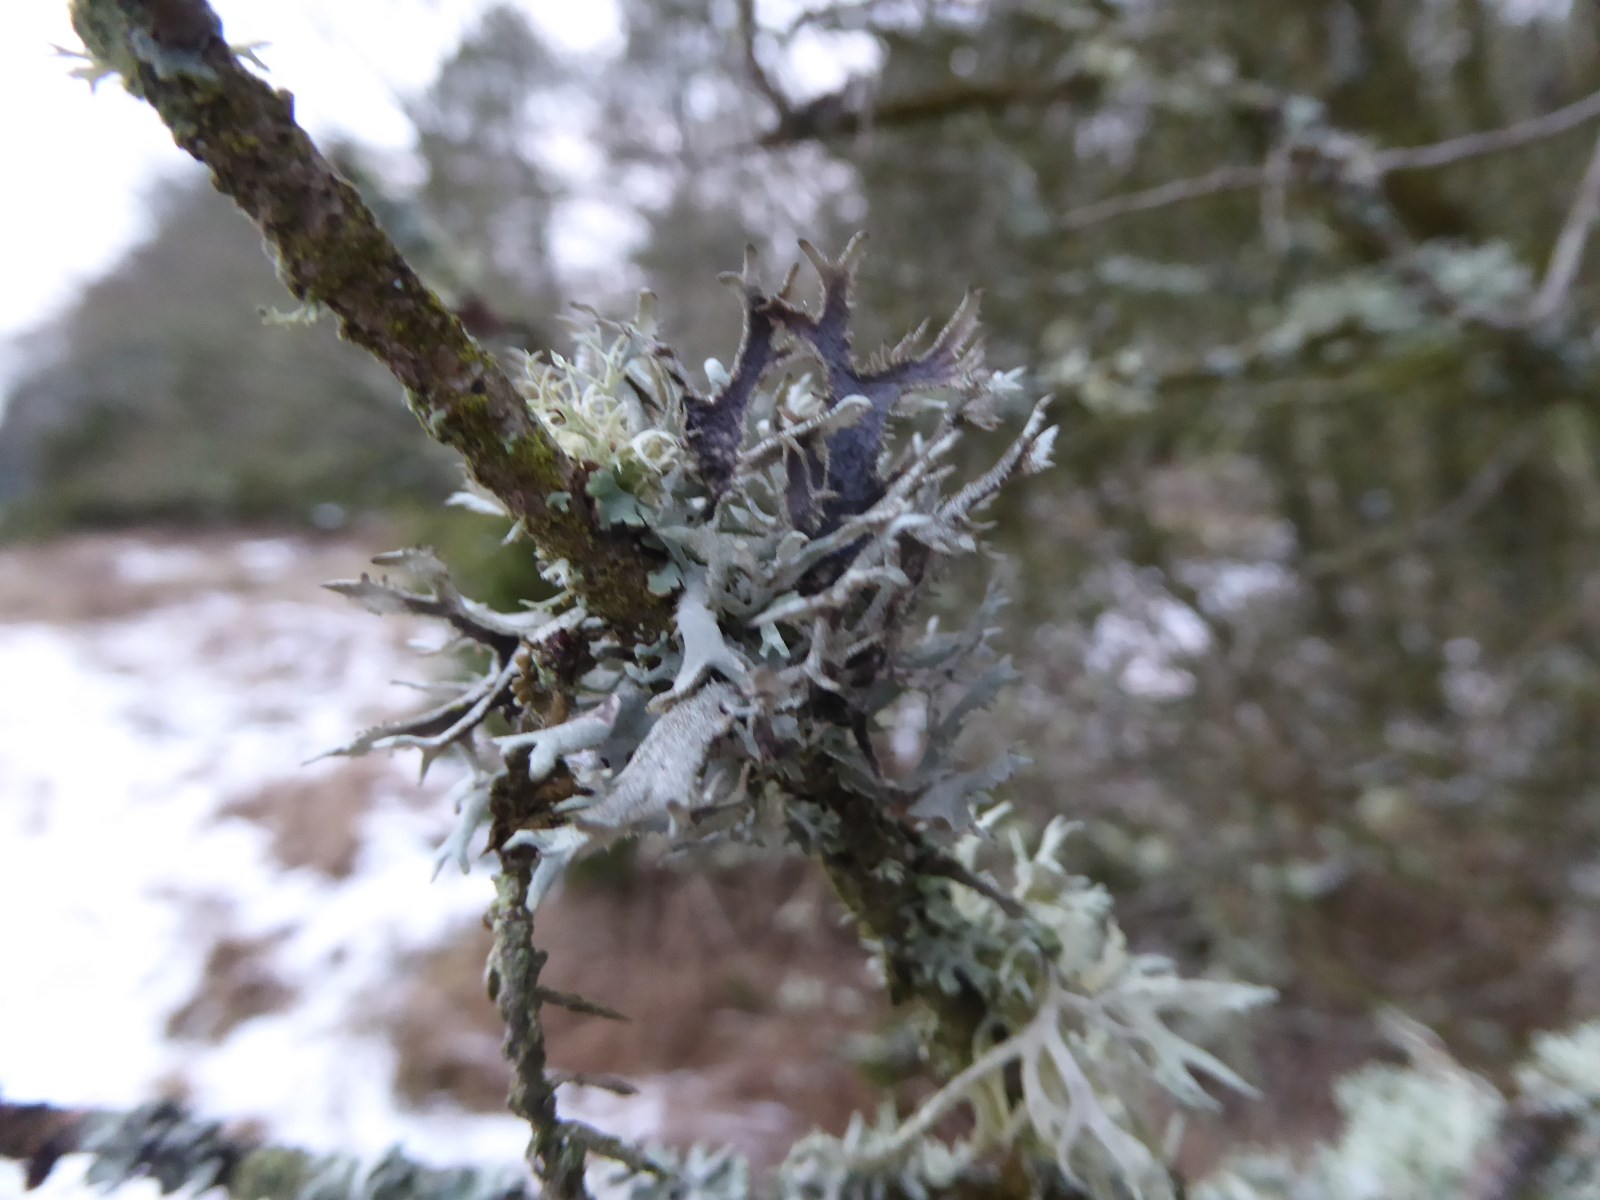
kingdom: Fungi
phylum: Ascomycota
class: Lecanoromycetes
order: Lecanorales
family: Parmeliaceae
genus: Pseudevernia
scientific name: Pseudevernia furfuracea
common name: grå fyrrelav
